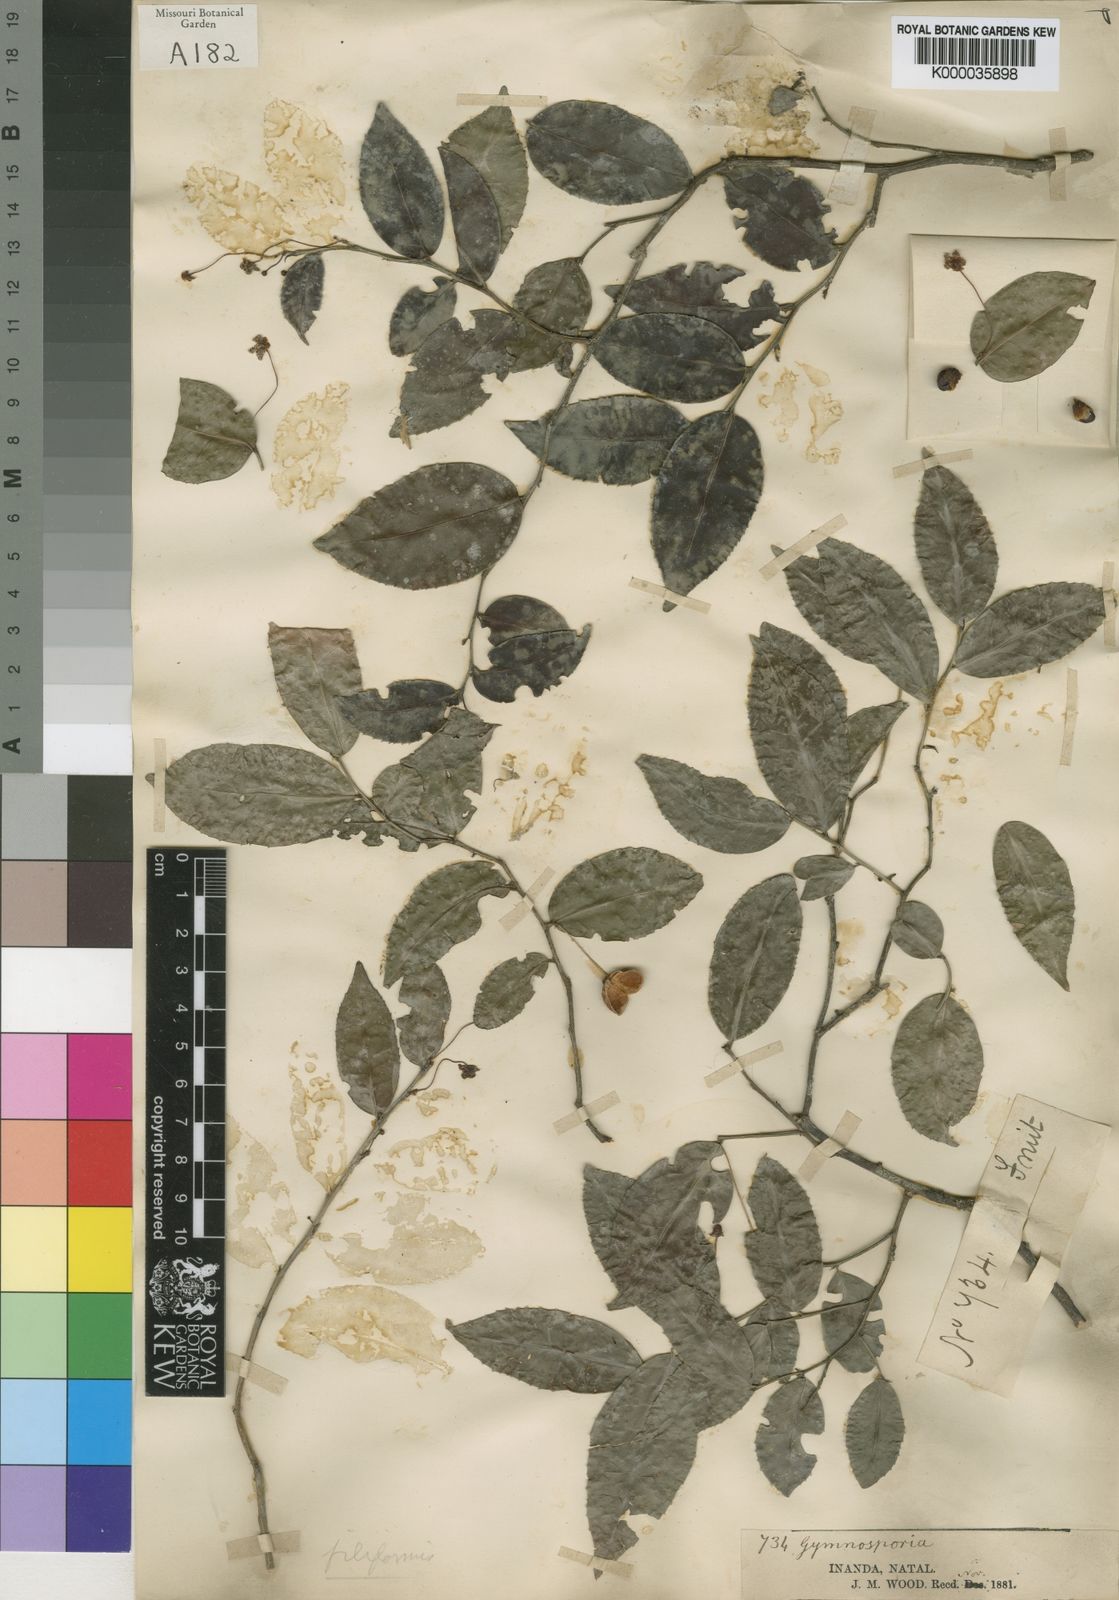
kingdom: Plantae
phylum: Tracheophyta
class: Magnoliopsida
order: Celastrales
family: Celastraceae
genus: Gymnosporia
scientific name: Gymnosporia acuminata
